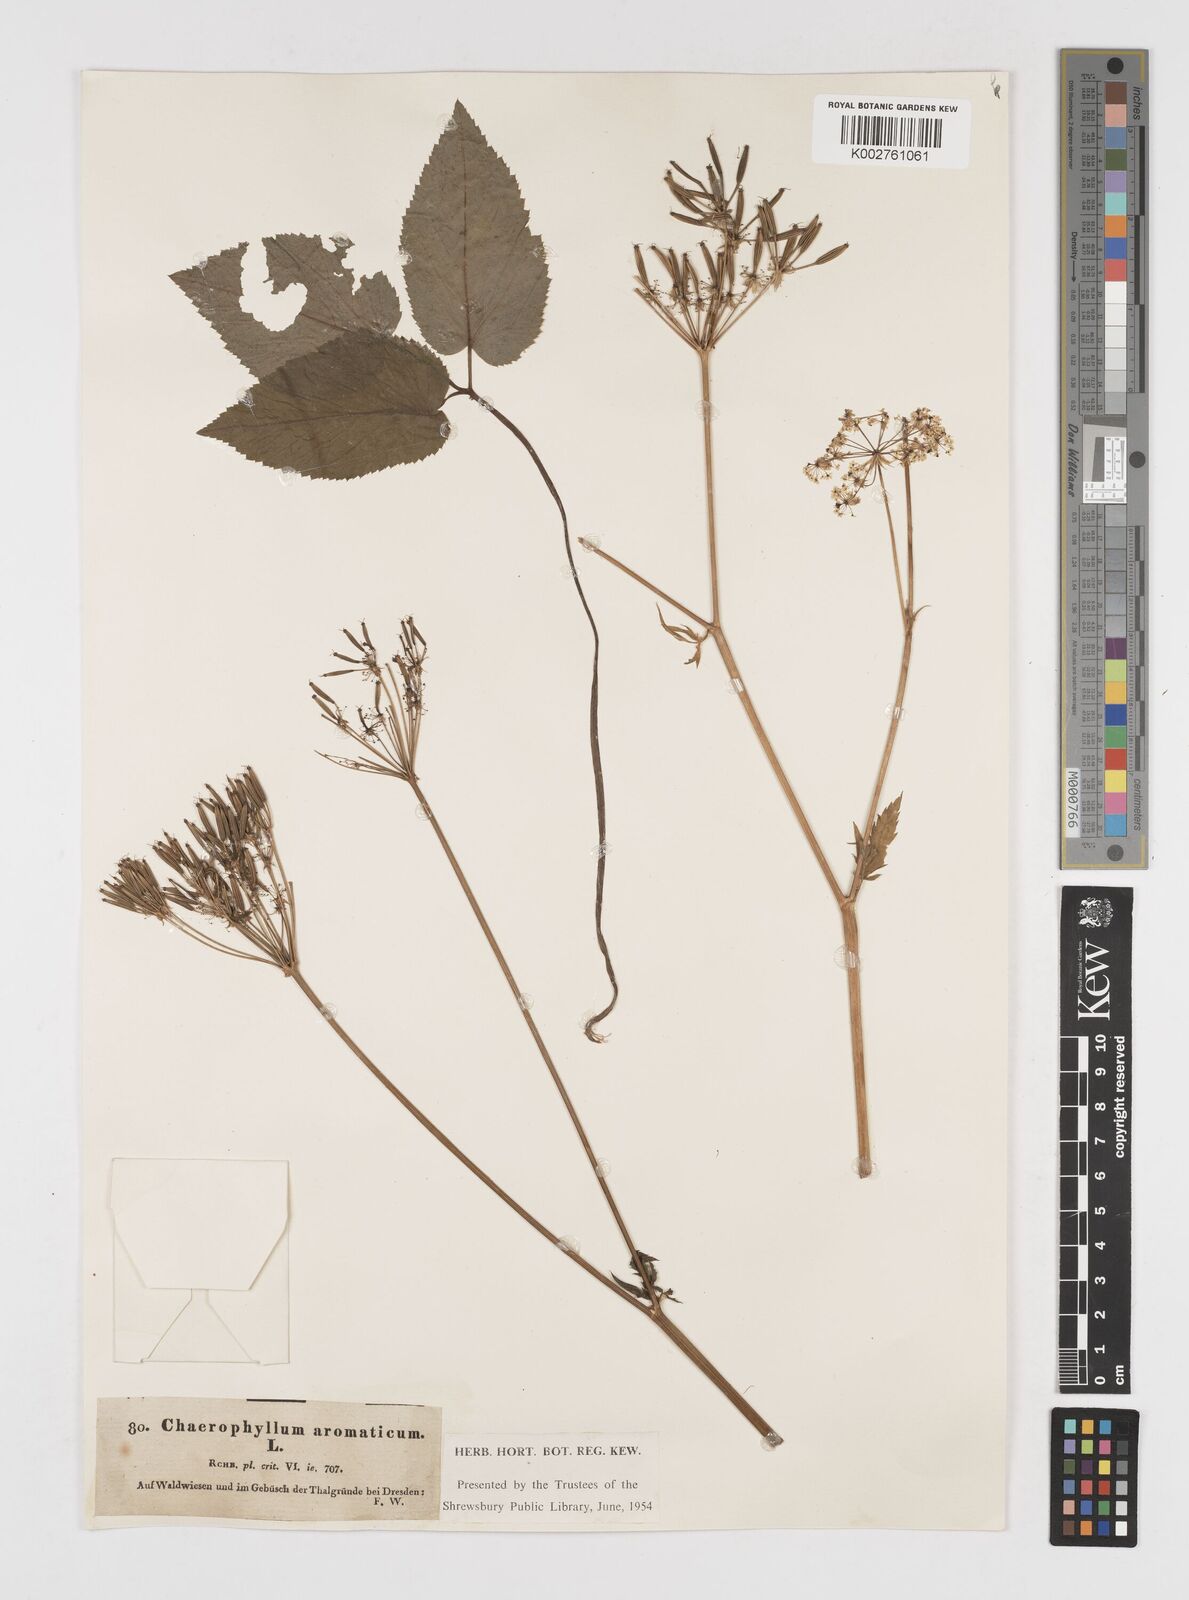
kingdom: Plantae
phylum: Tracheophyta
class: Magnoliopsida
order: Apiales
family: Apiaceae
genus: Chaerophyllum
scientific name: Chaerophyllum aromaticum
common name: Broadleaf chervil
